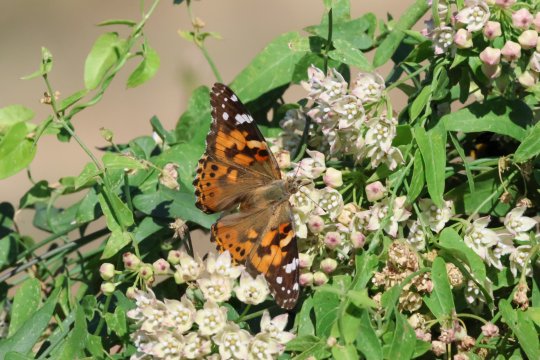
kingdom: Animalia
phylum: Arthropoda
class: Insecta
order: Lepidoptera
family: Nymphalidae
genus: Vanessa
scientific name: Vanessa cardui
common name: Painted Lady
